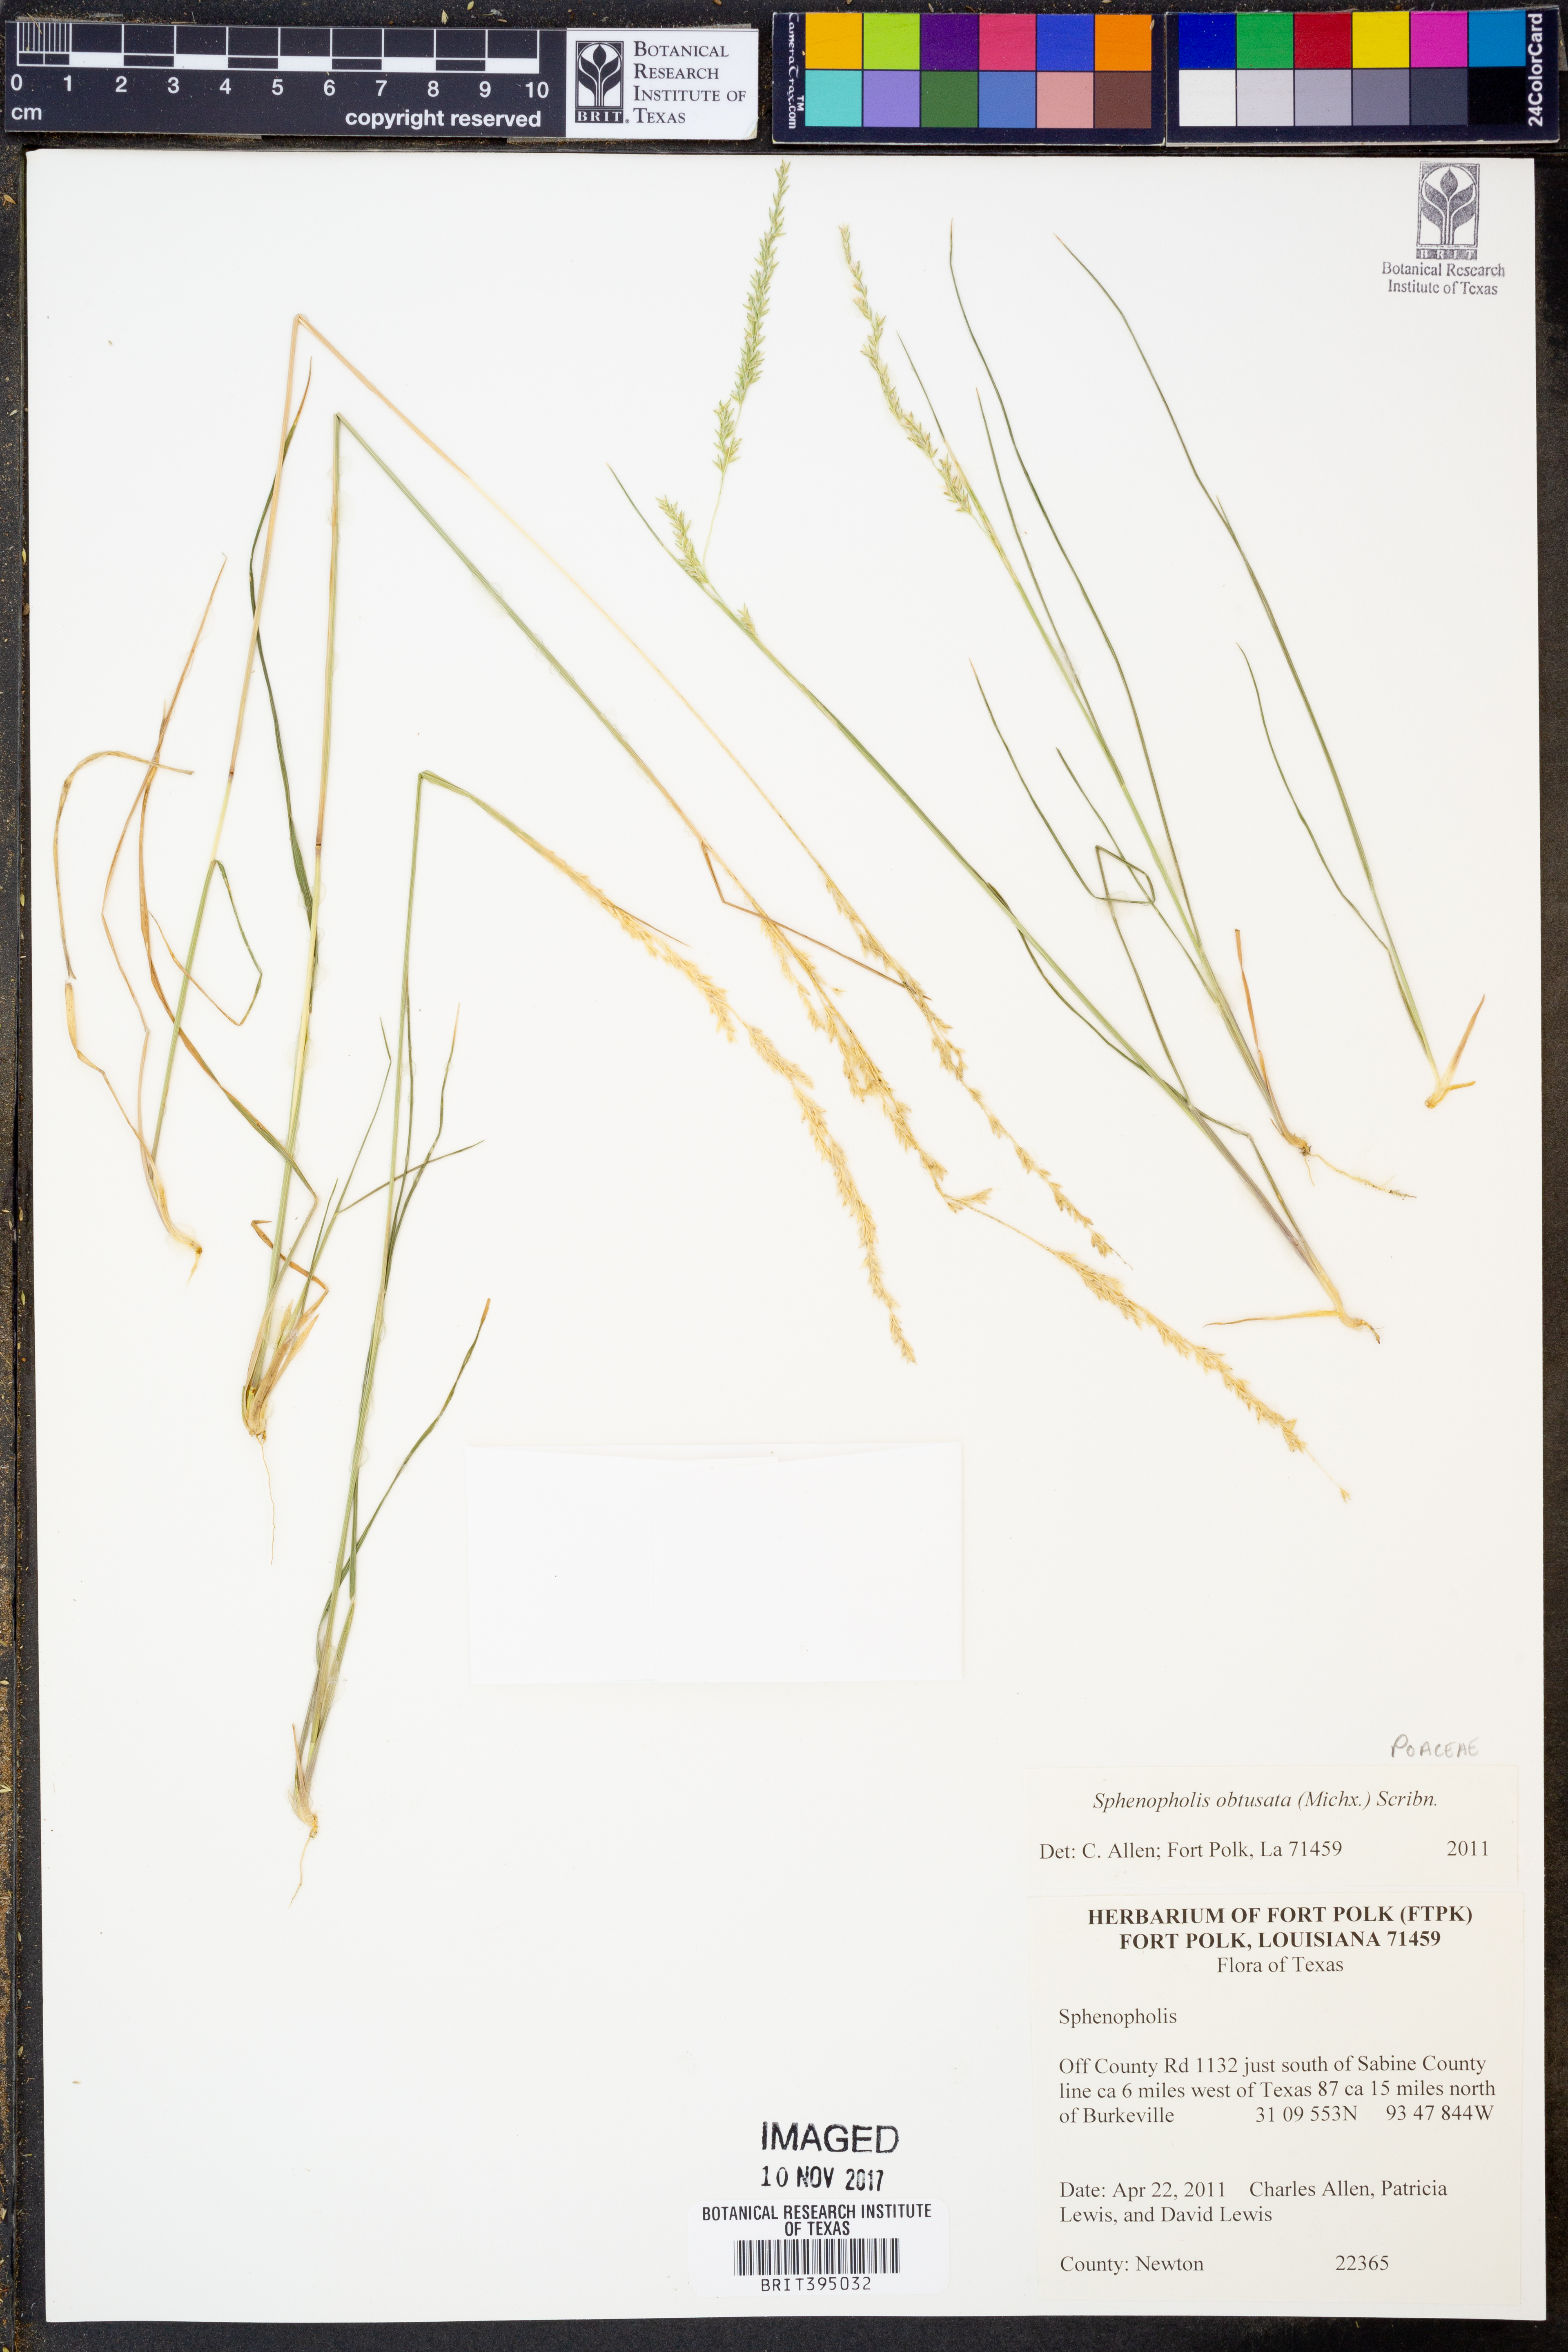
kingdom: Plantae
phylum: Tracheophyta
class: Liliopsida
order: Poales
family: Poaceae
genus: Sphenopholis
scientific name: Sphenopholis obtusata
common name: Prairie grass
